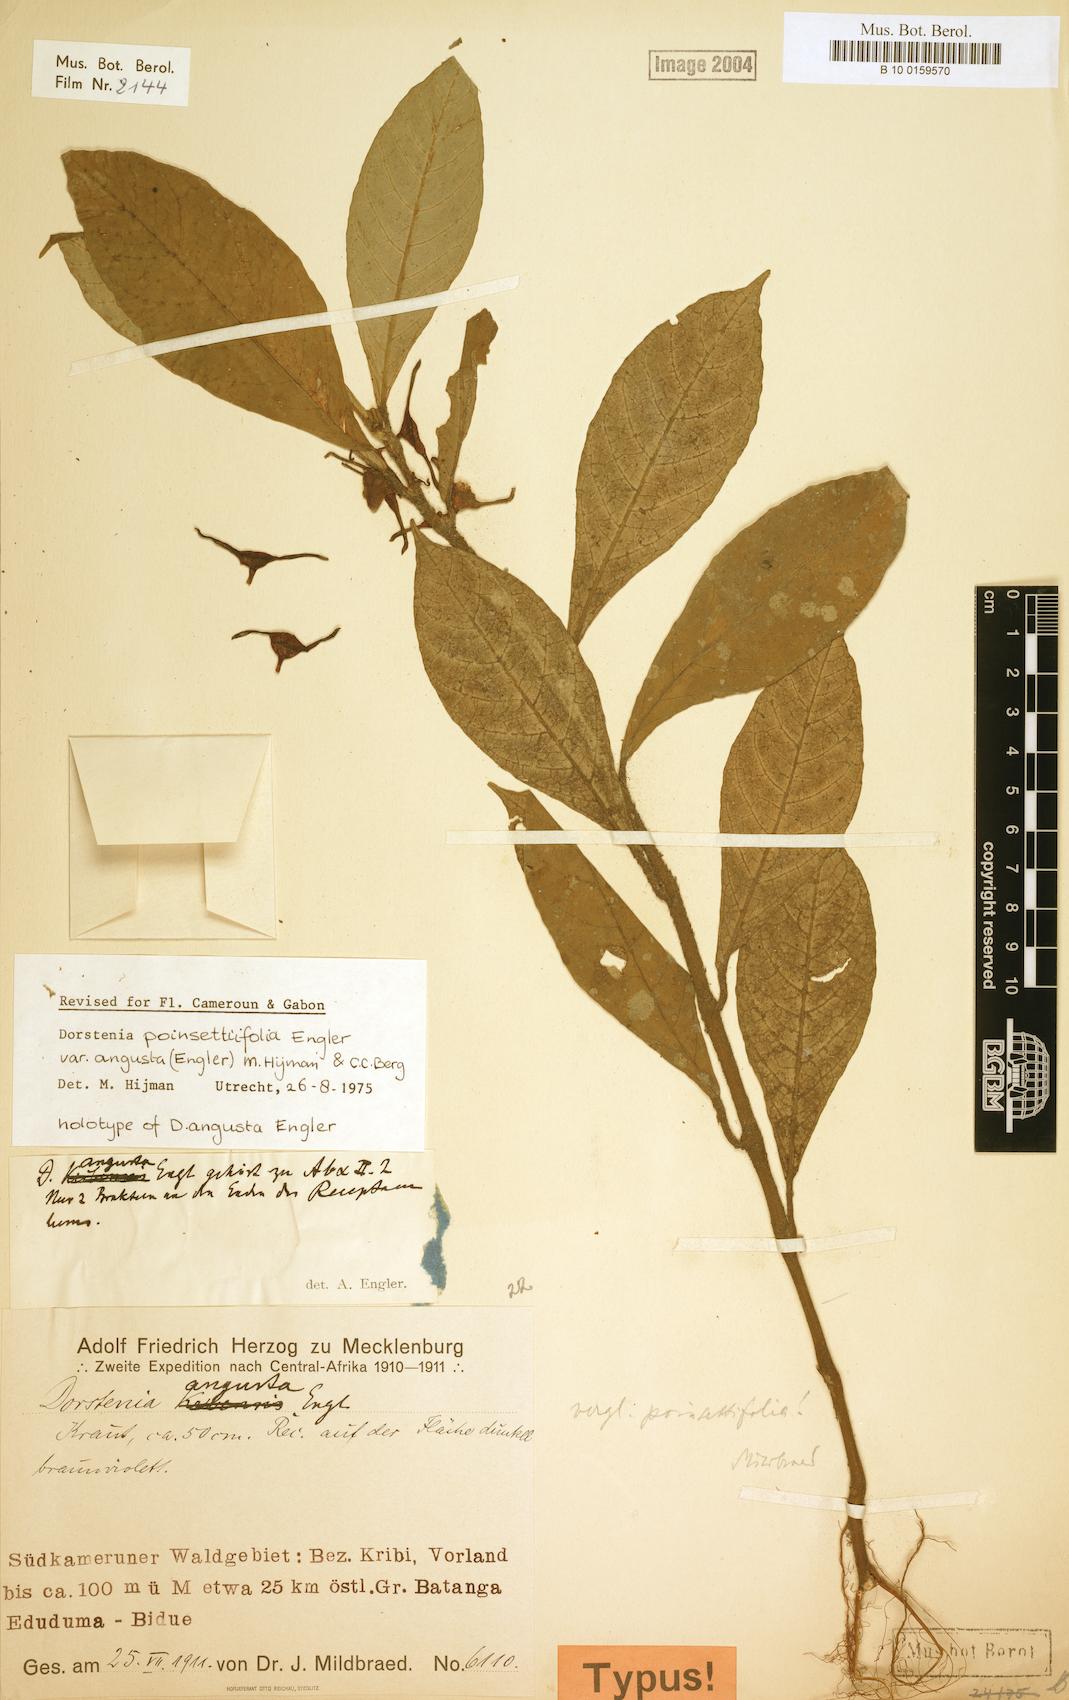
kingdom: Plantae
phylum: Tracheophyta
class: Magnoliopsida
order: Rosales
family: Moraceae
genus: Dorstenia
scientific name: Dorstenia poinsettifolia
